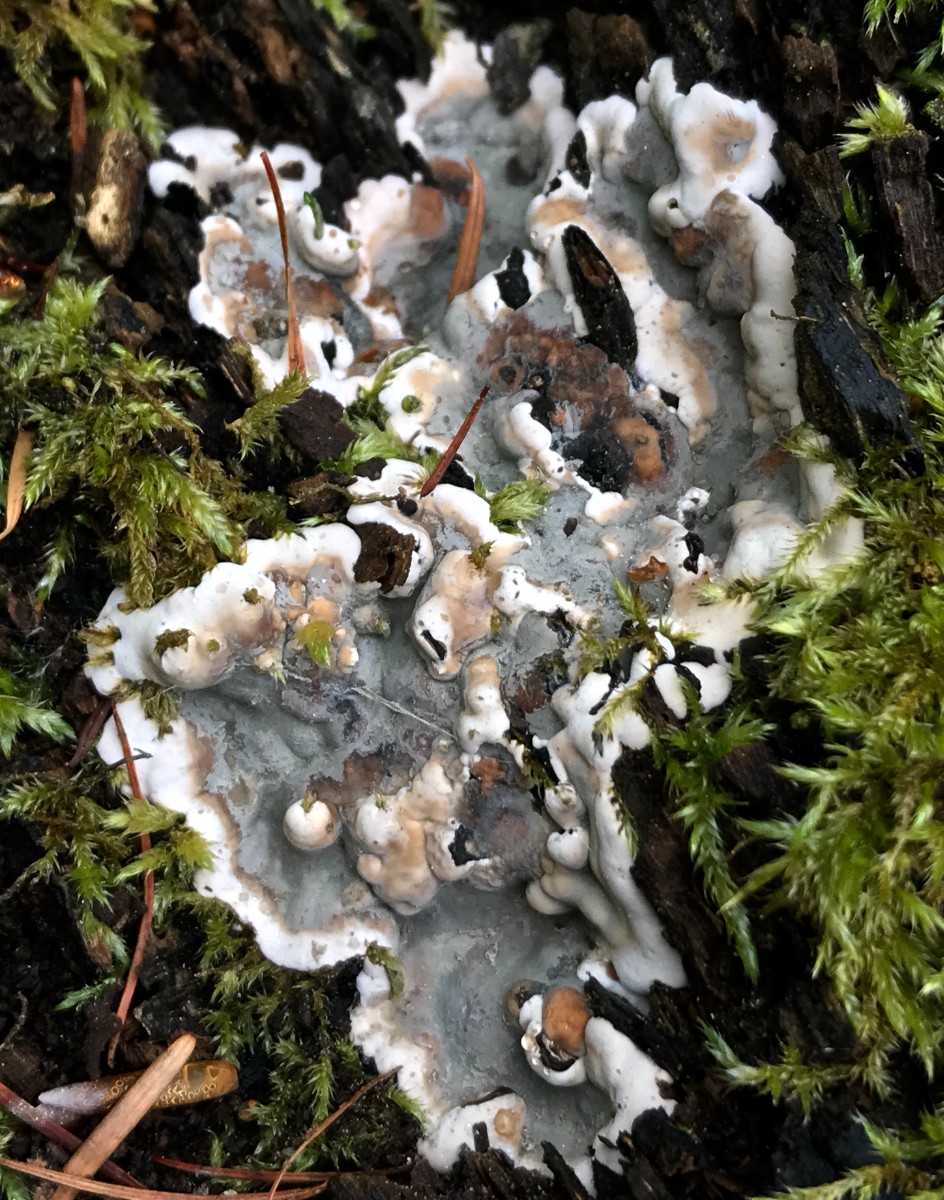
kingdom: Fungi
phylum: Ascomycota
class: Sordariomycetes
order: Xylariales
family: Xylariaceae
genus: Kretzschmaria
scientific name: Kretzschmaria deusta
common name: stor kulsvamp
